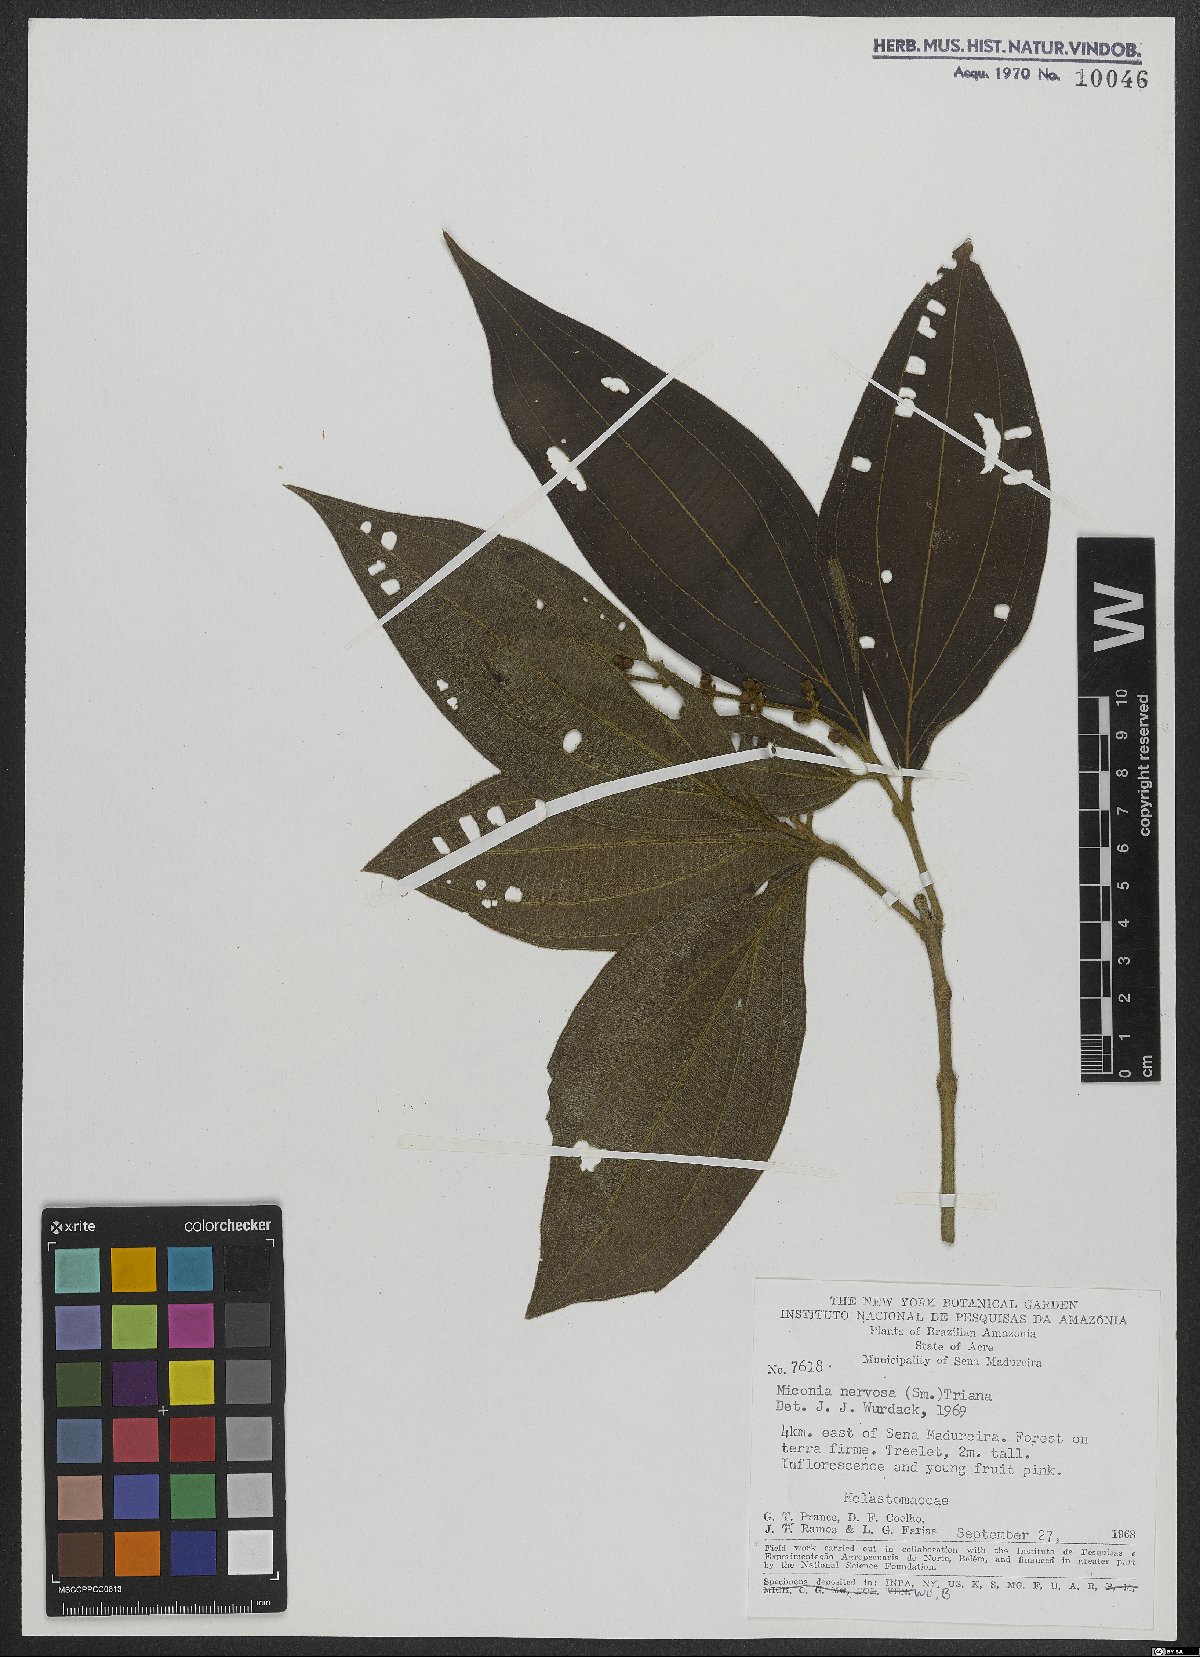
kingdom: Plantae
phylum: Tracheophyta
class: Magnoliopsida
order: Myrtales
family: Melastomataceae
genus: Miconia
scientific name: Miconia nervosa
